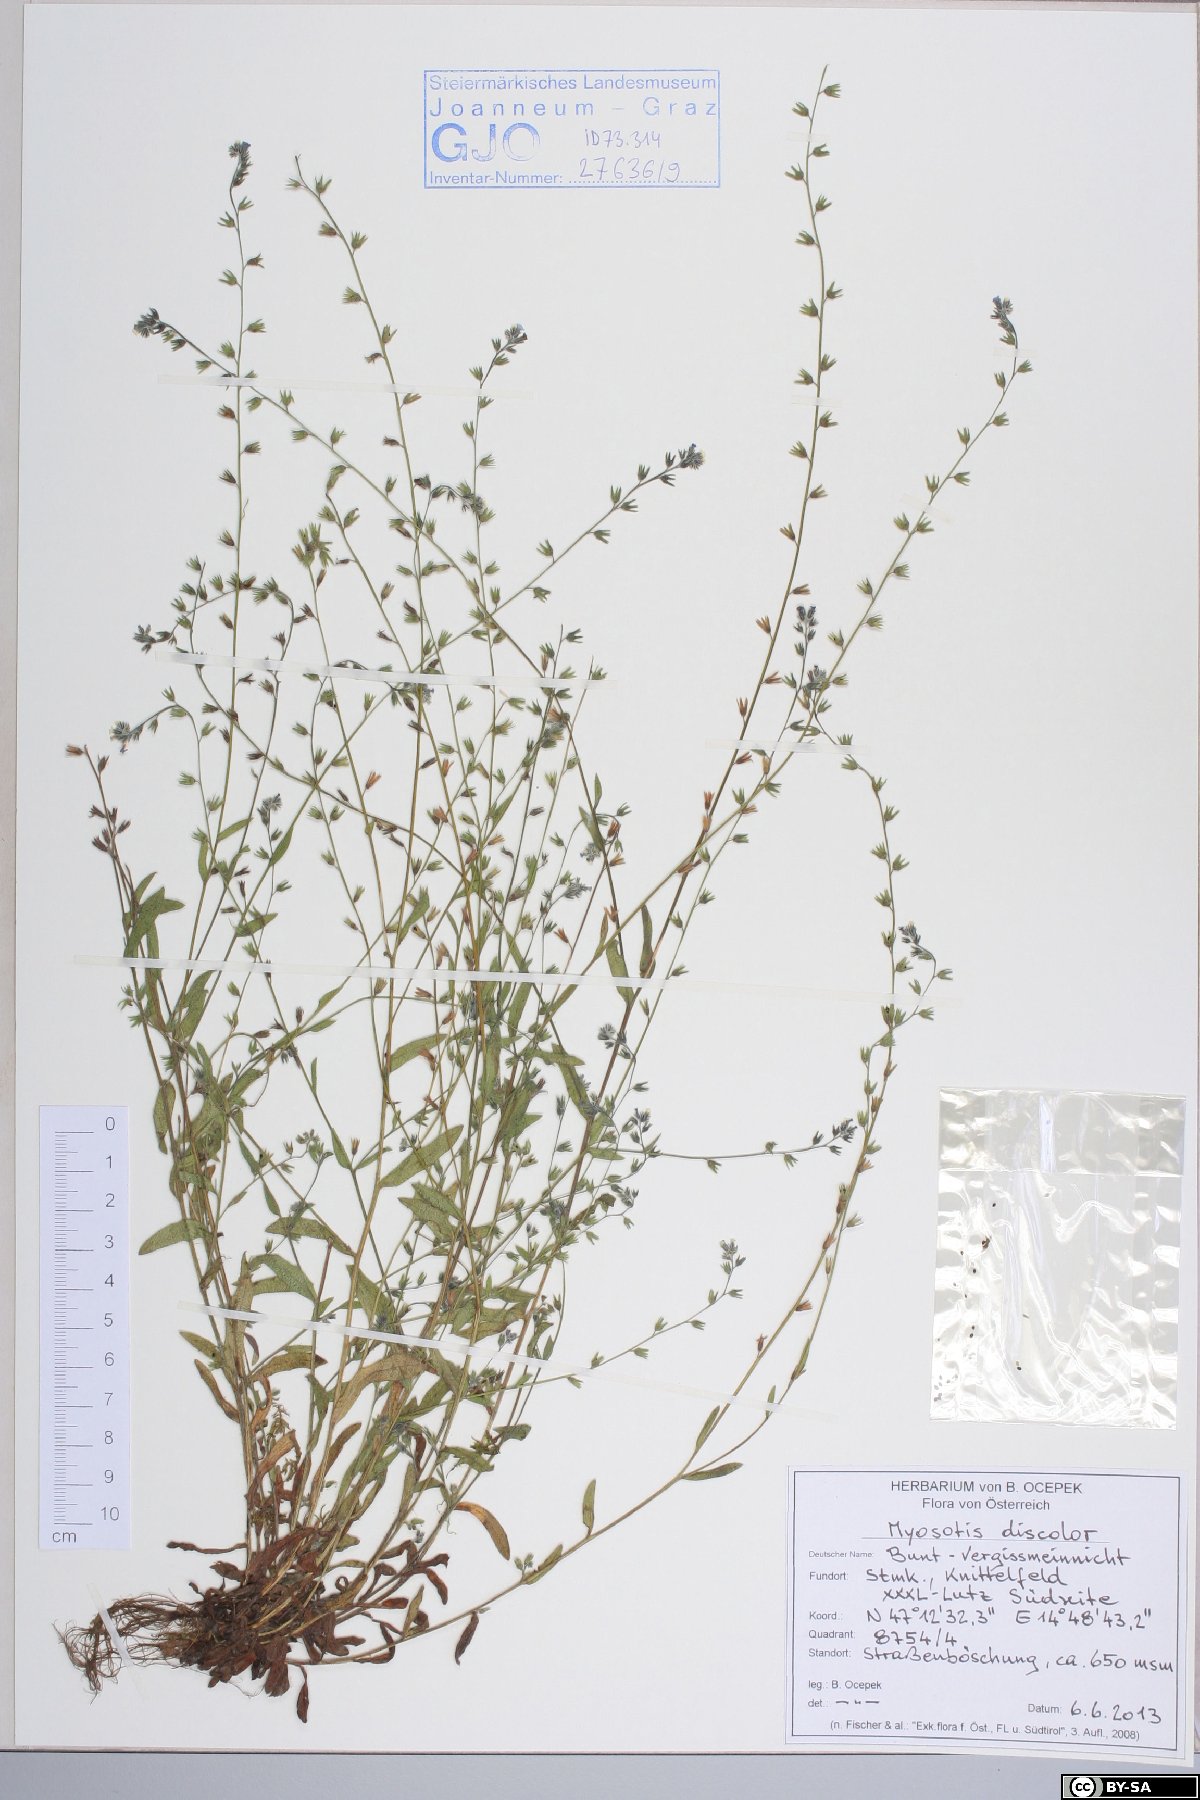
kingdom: Plantae
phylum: Tracheophyta
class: Magnoliopsida
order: Boraginales
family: Boraginaceae
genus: Myosotis
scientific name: Myosotis discolor
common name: Changing forget-me-not
